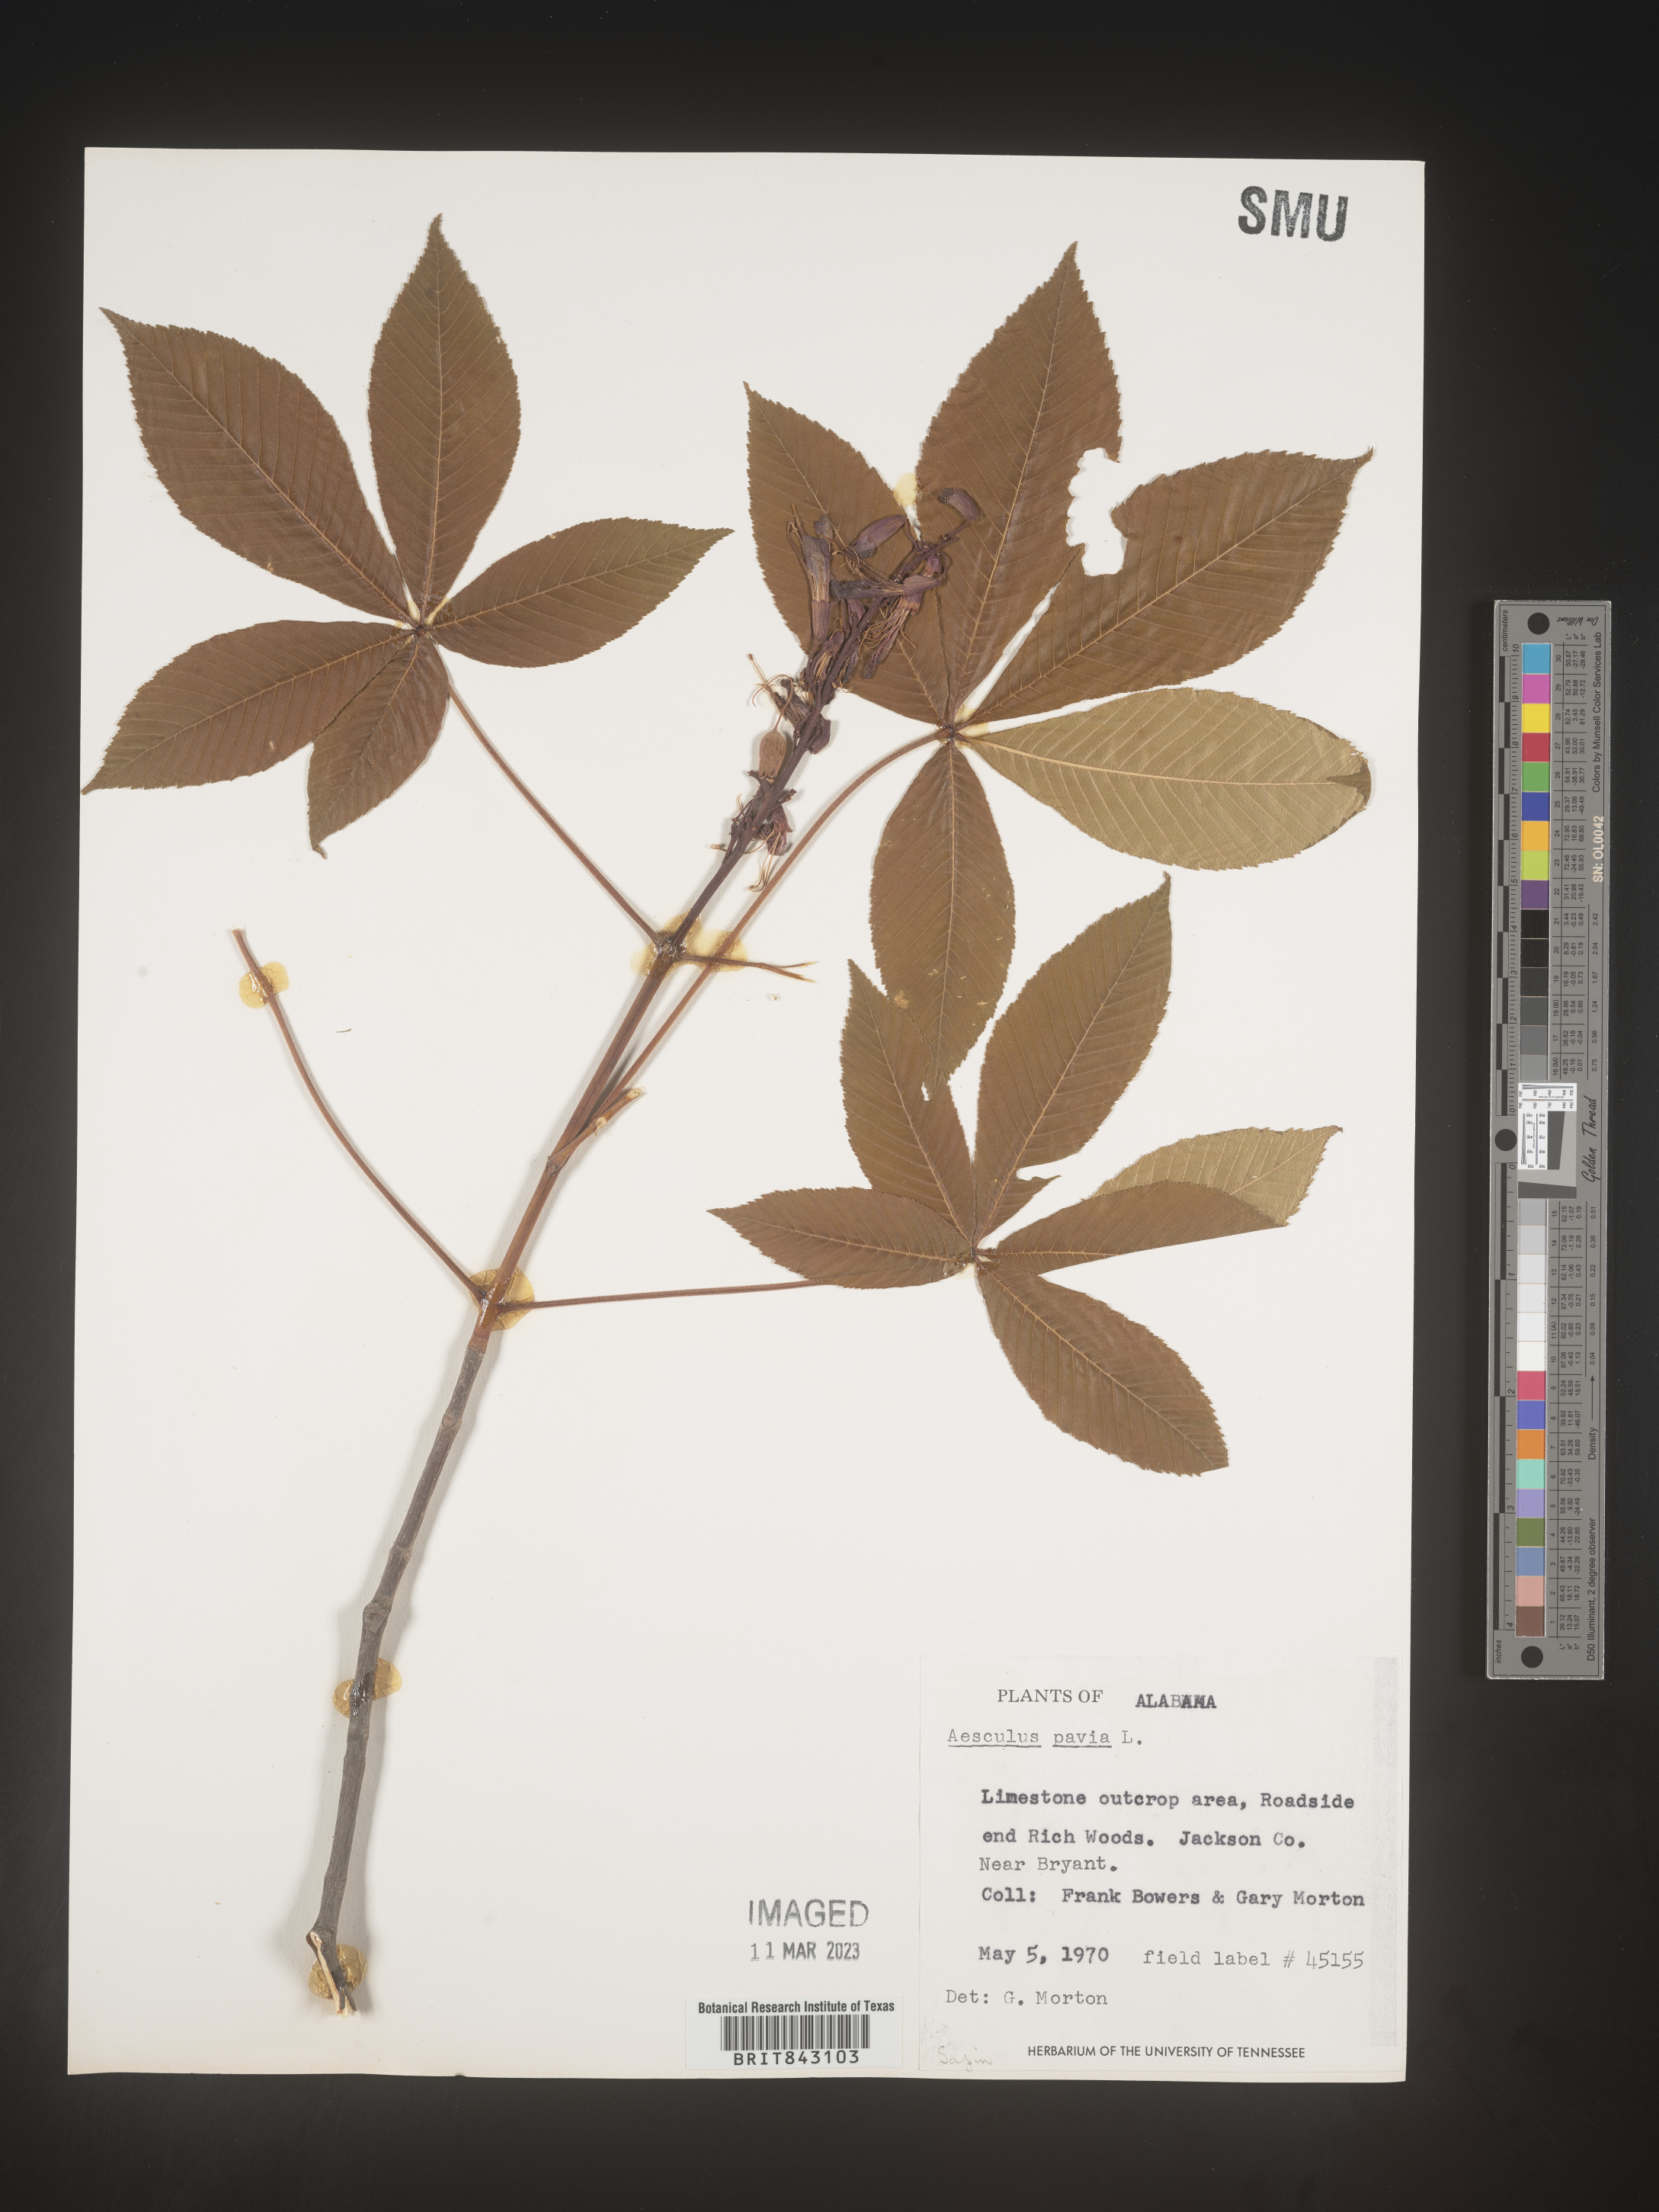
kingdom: Plantae
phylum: Tracheophyta
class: Magnoliopsida
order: Sapindales
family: Sapindaceae
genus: Aesculus
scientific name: Aesculus pavia
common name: Red buckeye
